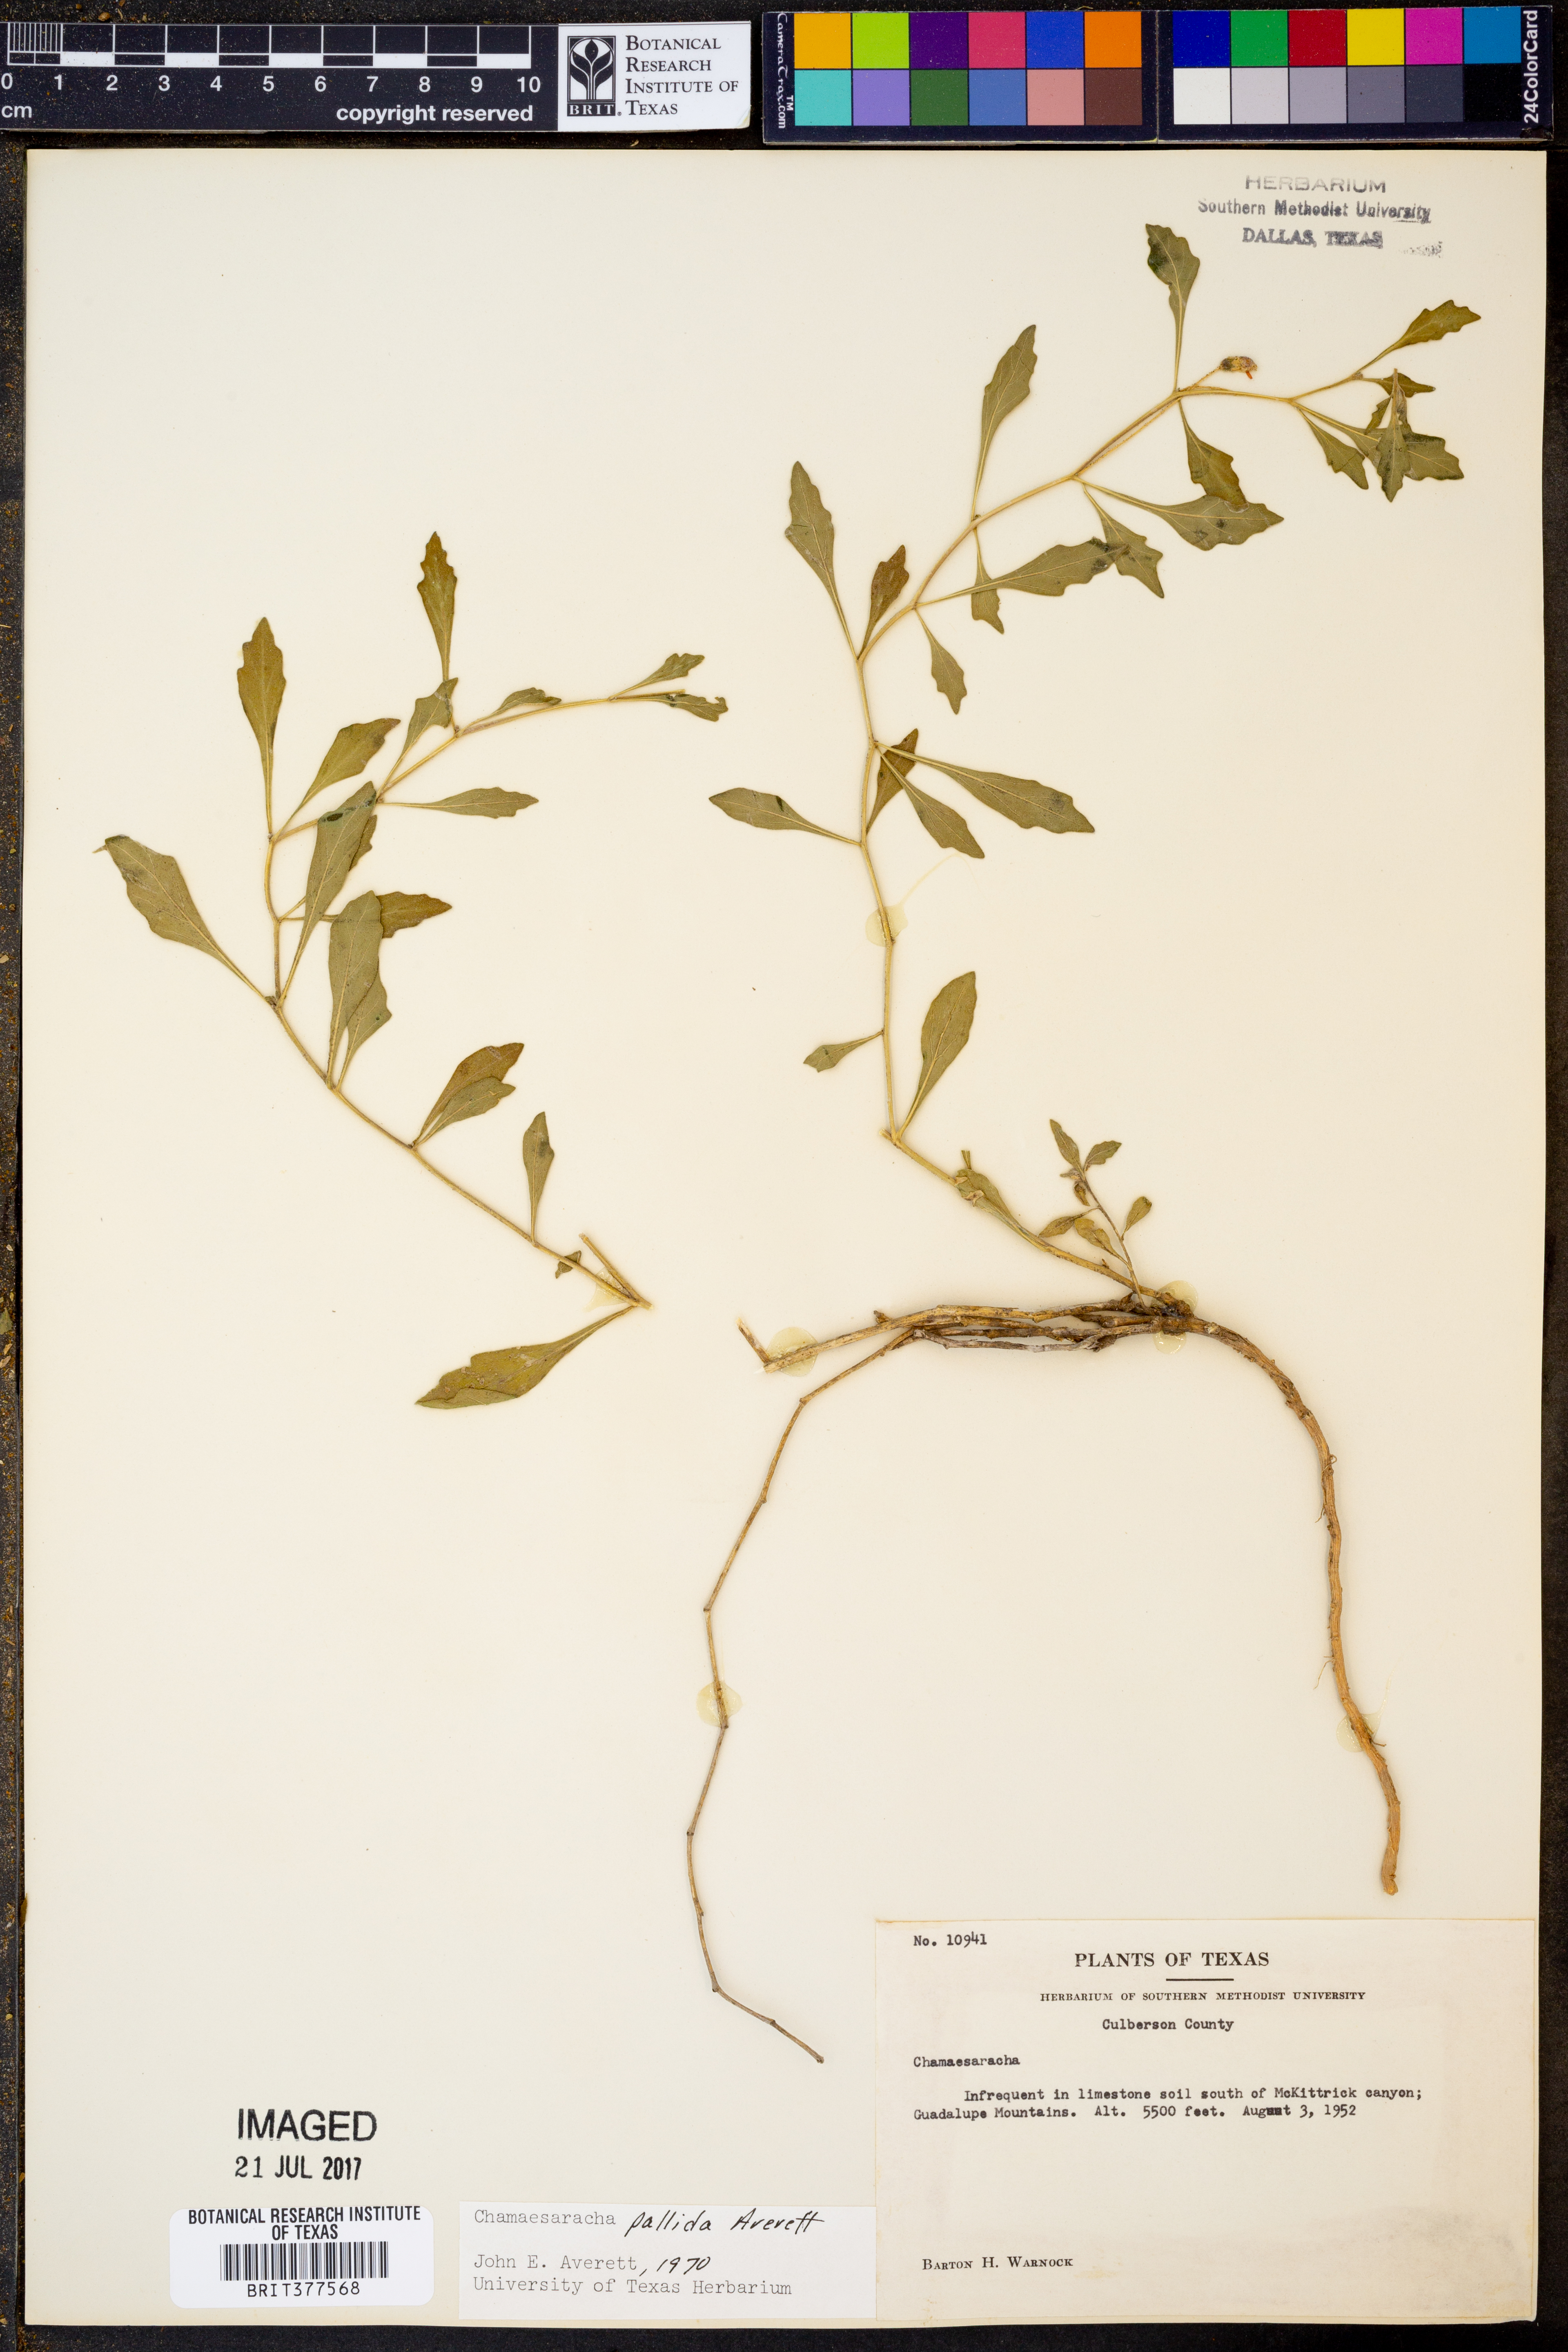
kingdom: Plantae
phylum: Tracheophyta
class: Magnoliopsida
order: Solanales
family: Solanaceae
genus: Chamaesaracha
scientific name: Chamaesaracha pallida
